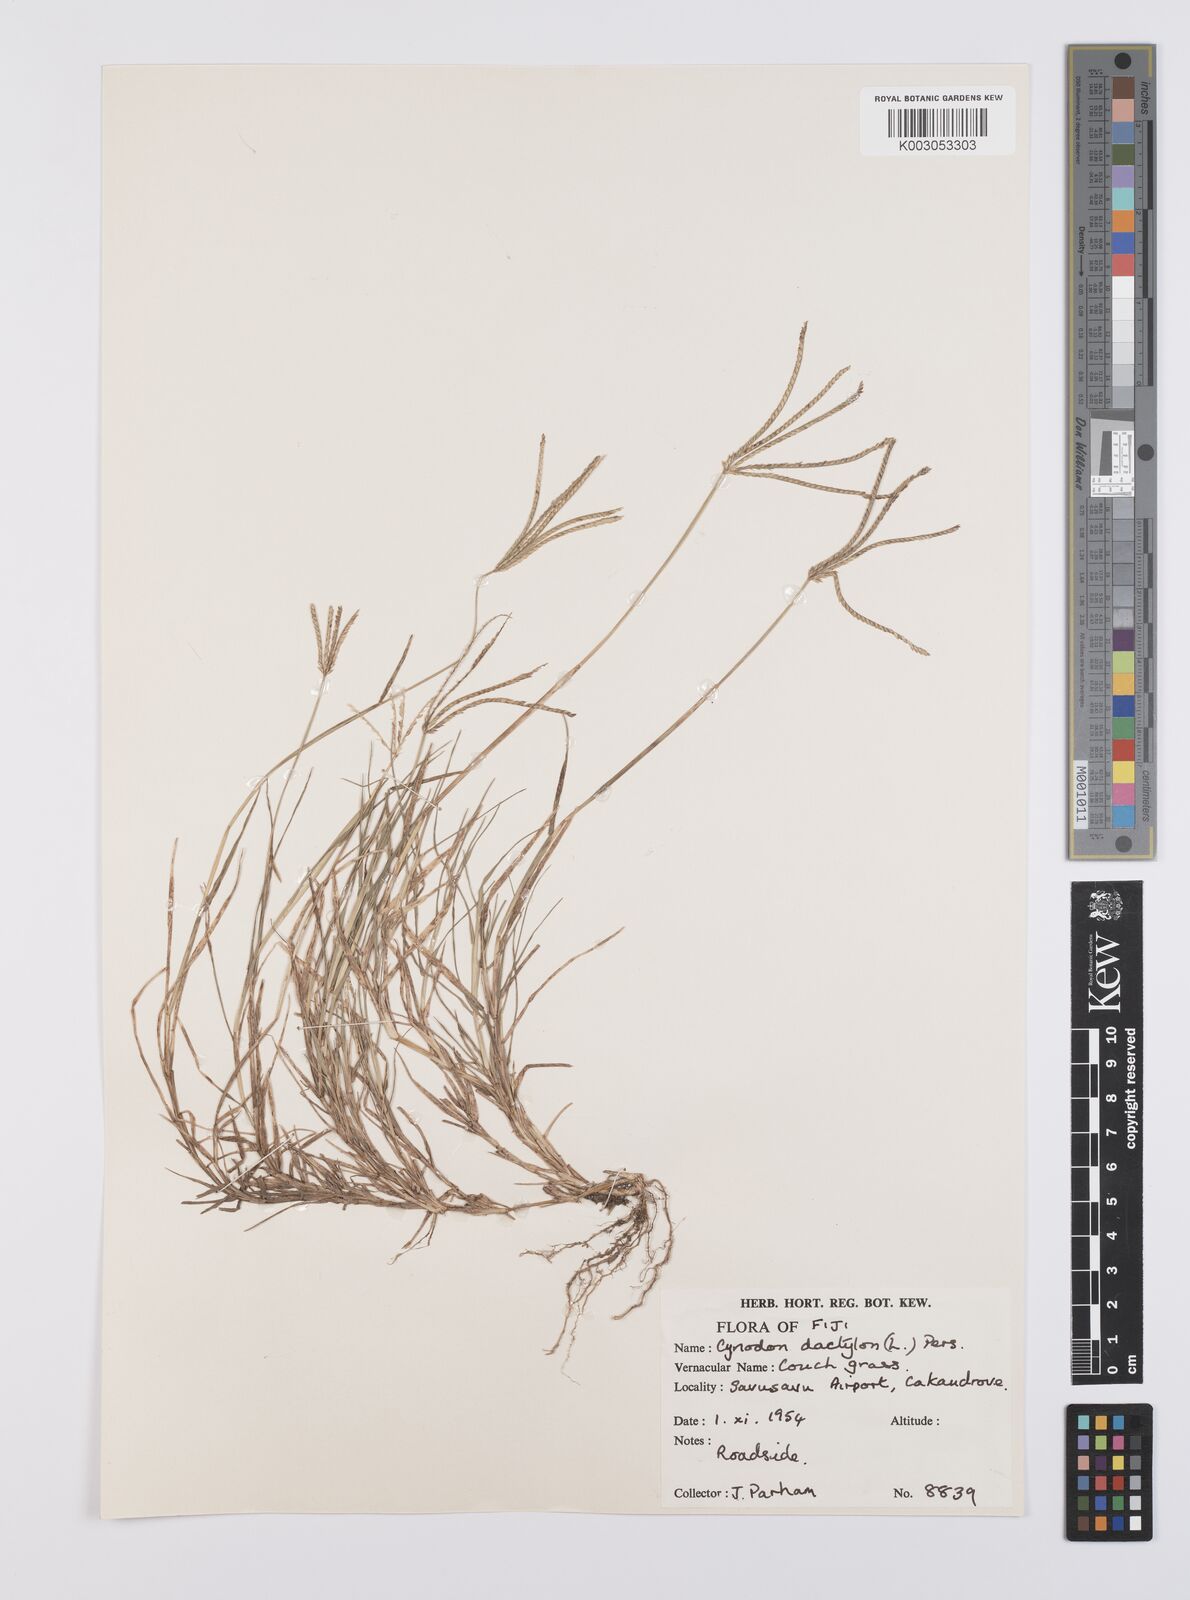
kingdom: Plantae
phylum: Tracheophyta
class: Liliopsida
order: Poales
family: Poaceae
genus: Cynodon
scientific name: Cynodon dactylon
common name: Bermuda grass
